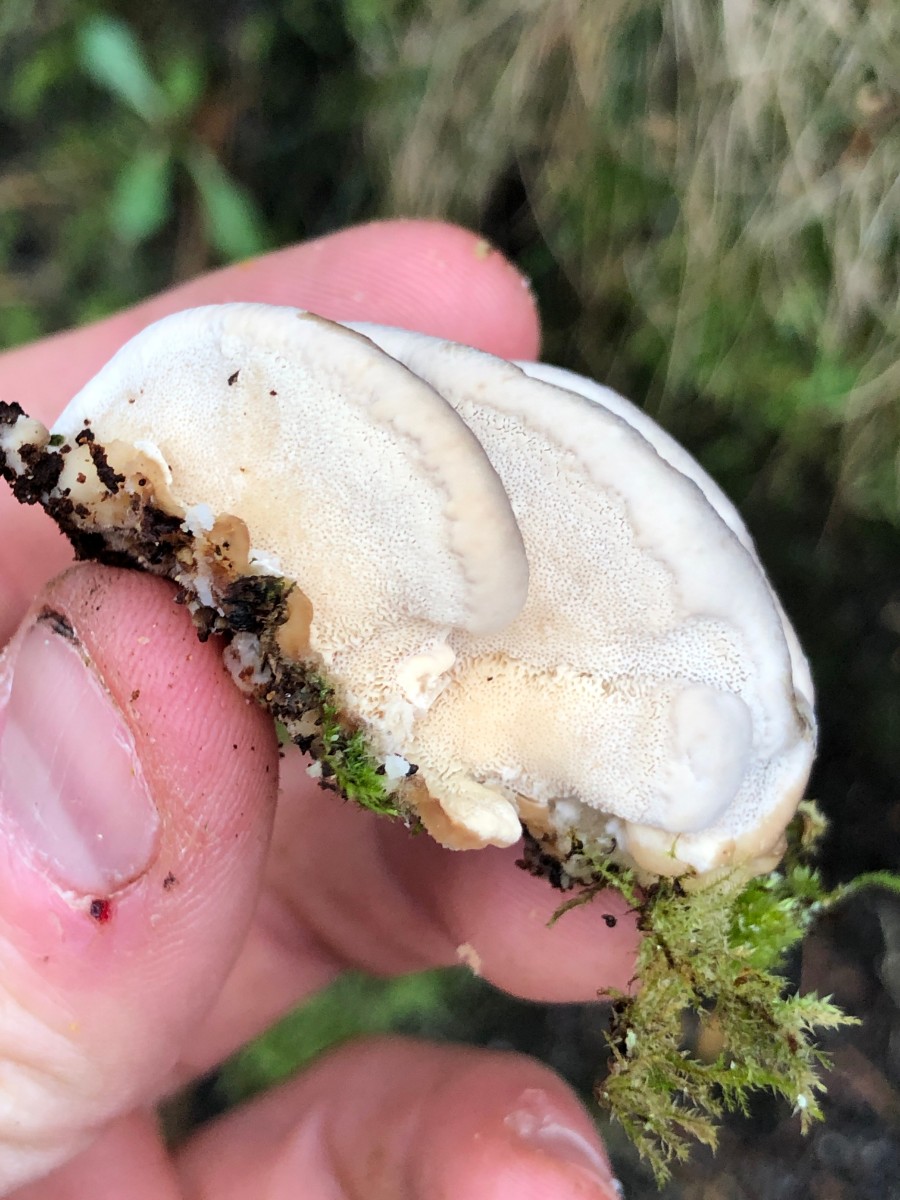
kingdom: Fungi
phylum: Basidiomycota
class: Agaricomycetes
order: Polyporales
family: Polyporaceae
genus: Trametes
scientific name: Trametes versicolor
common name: broget læderporesvamp
